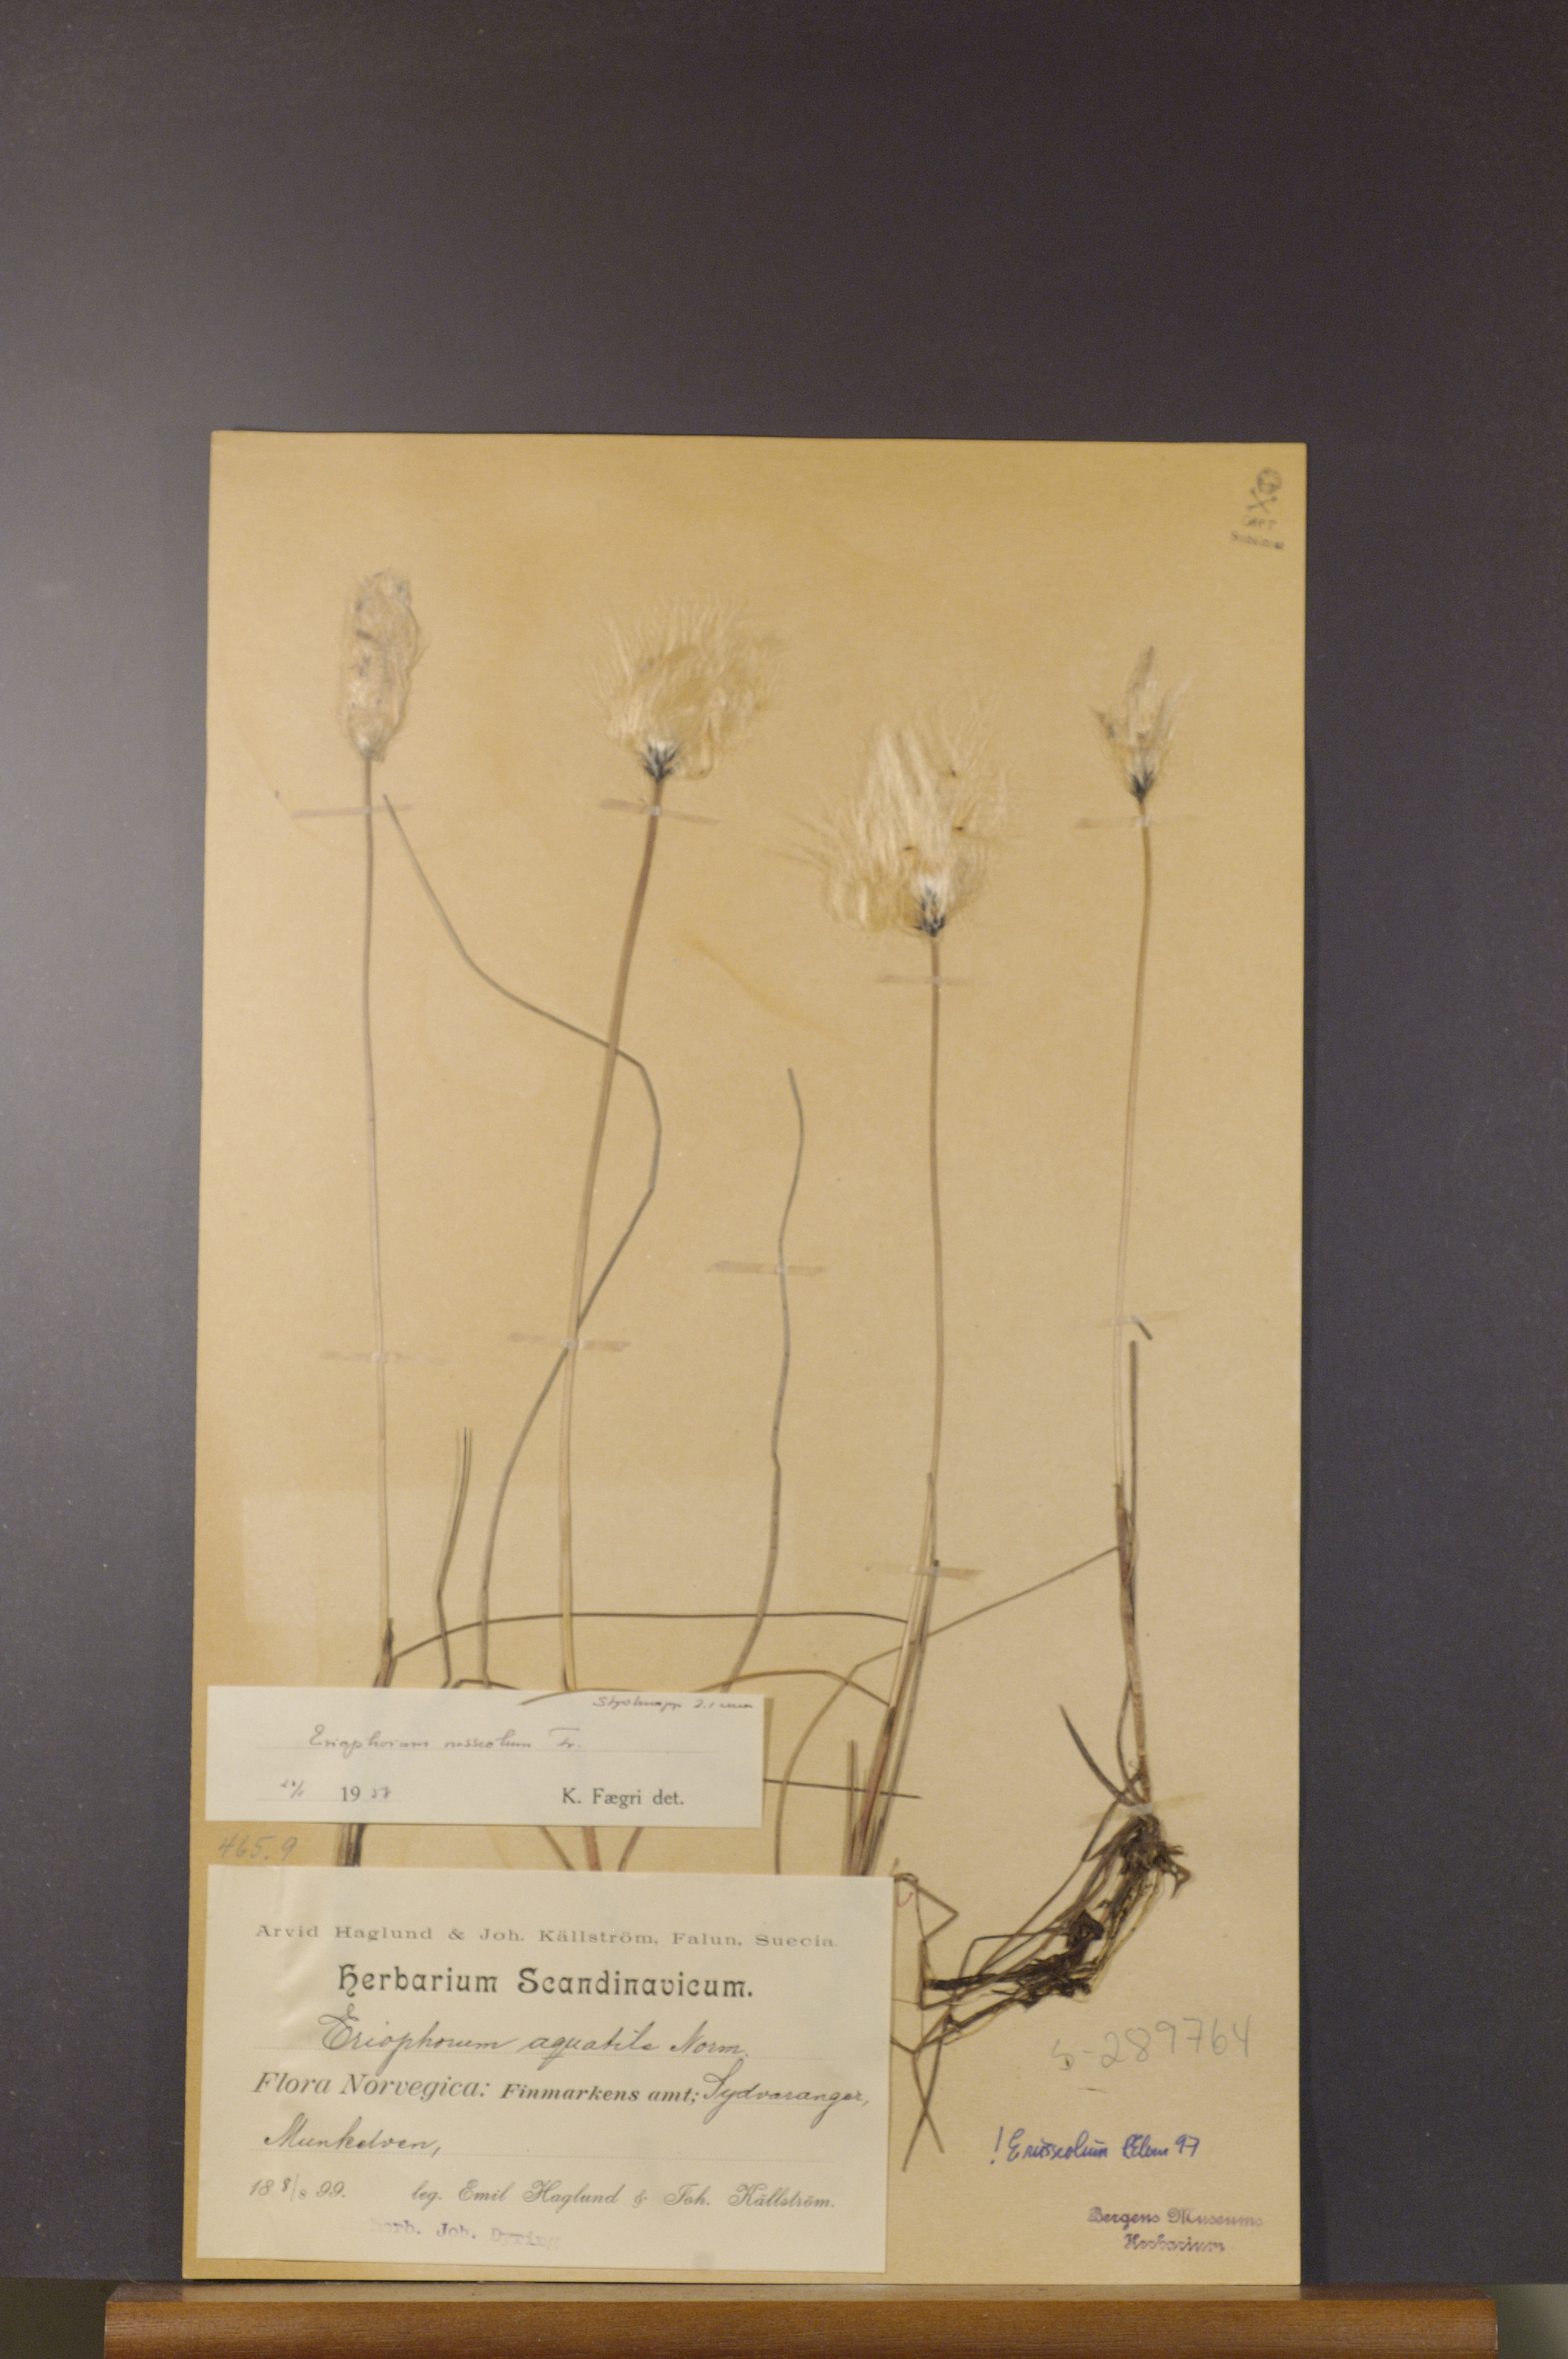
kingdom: Plantae
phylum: Tracheophyta
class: Liliopsida
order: Poales
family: Cyperaceae
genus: Eriophorum
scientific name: Eriophorum russeolum
